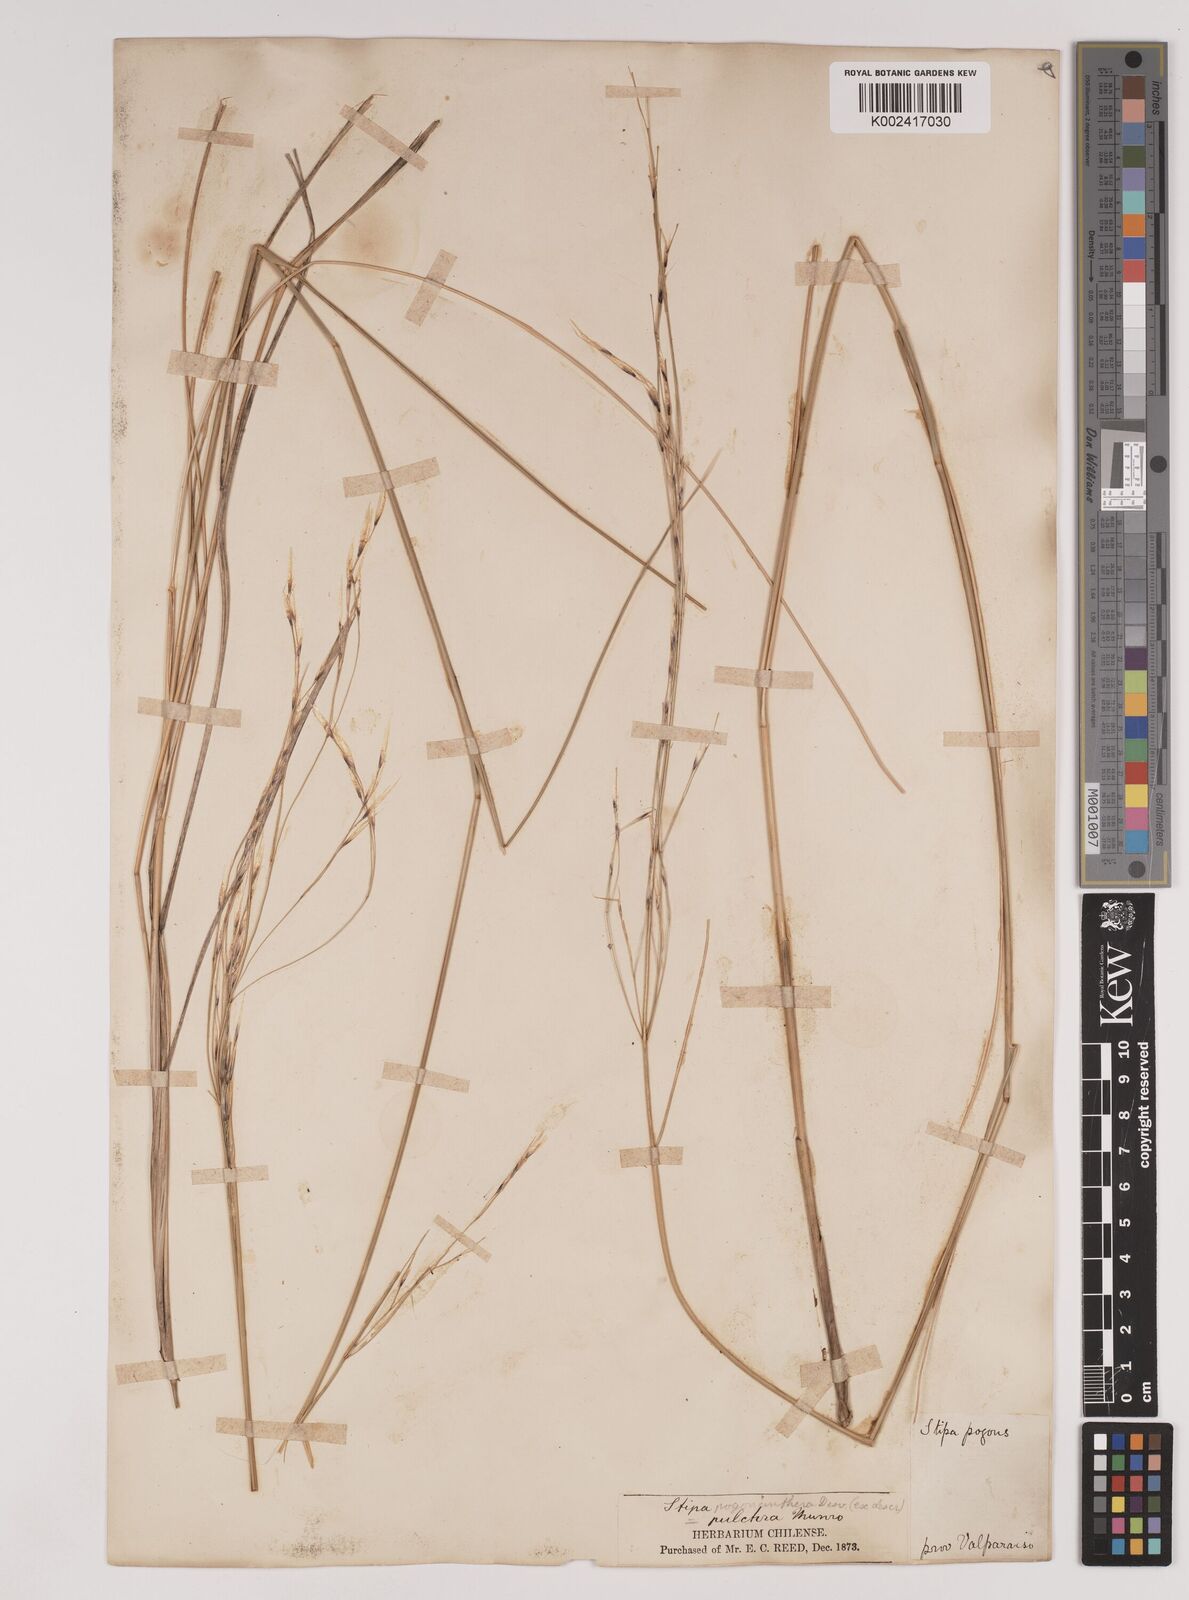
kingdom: Plantae
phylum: Tracheophyta
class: Liliopsida
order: Poales
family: Poaceae
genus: Stipa
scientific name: Stipa pogonathera
